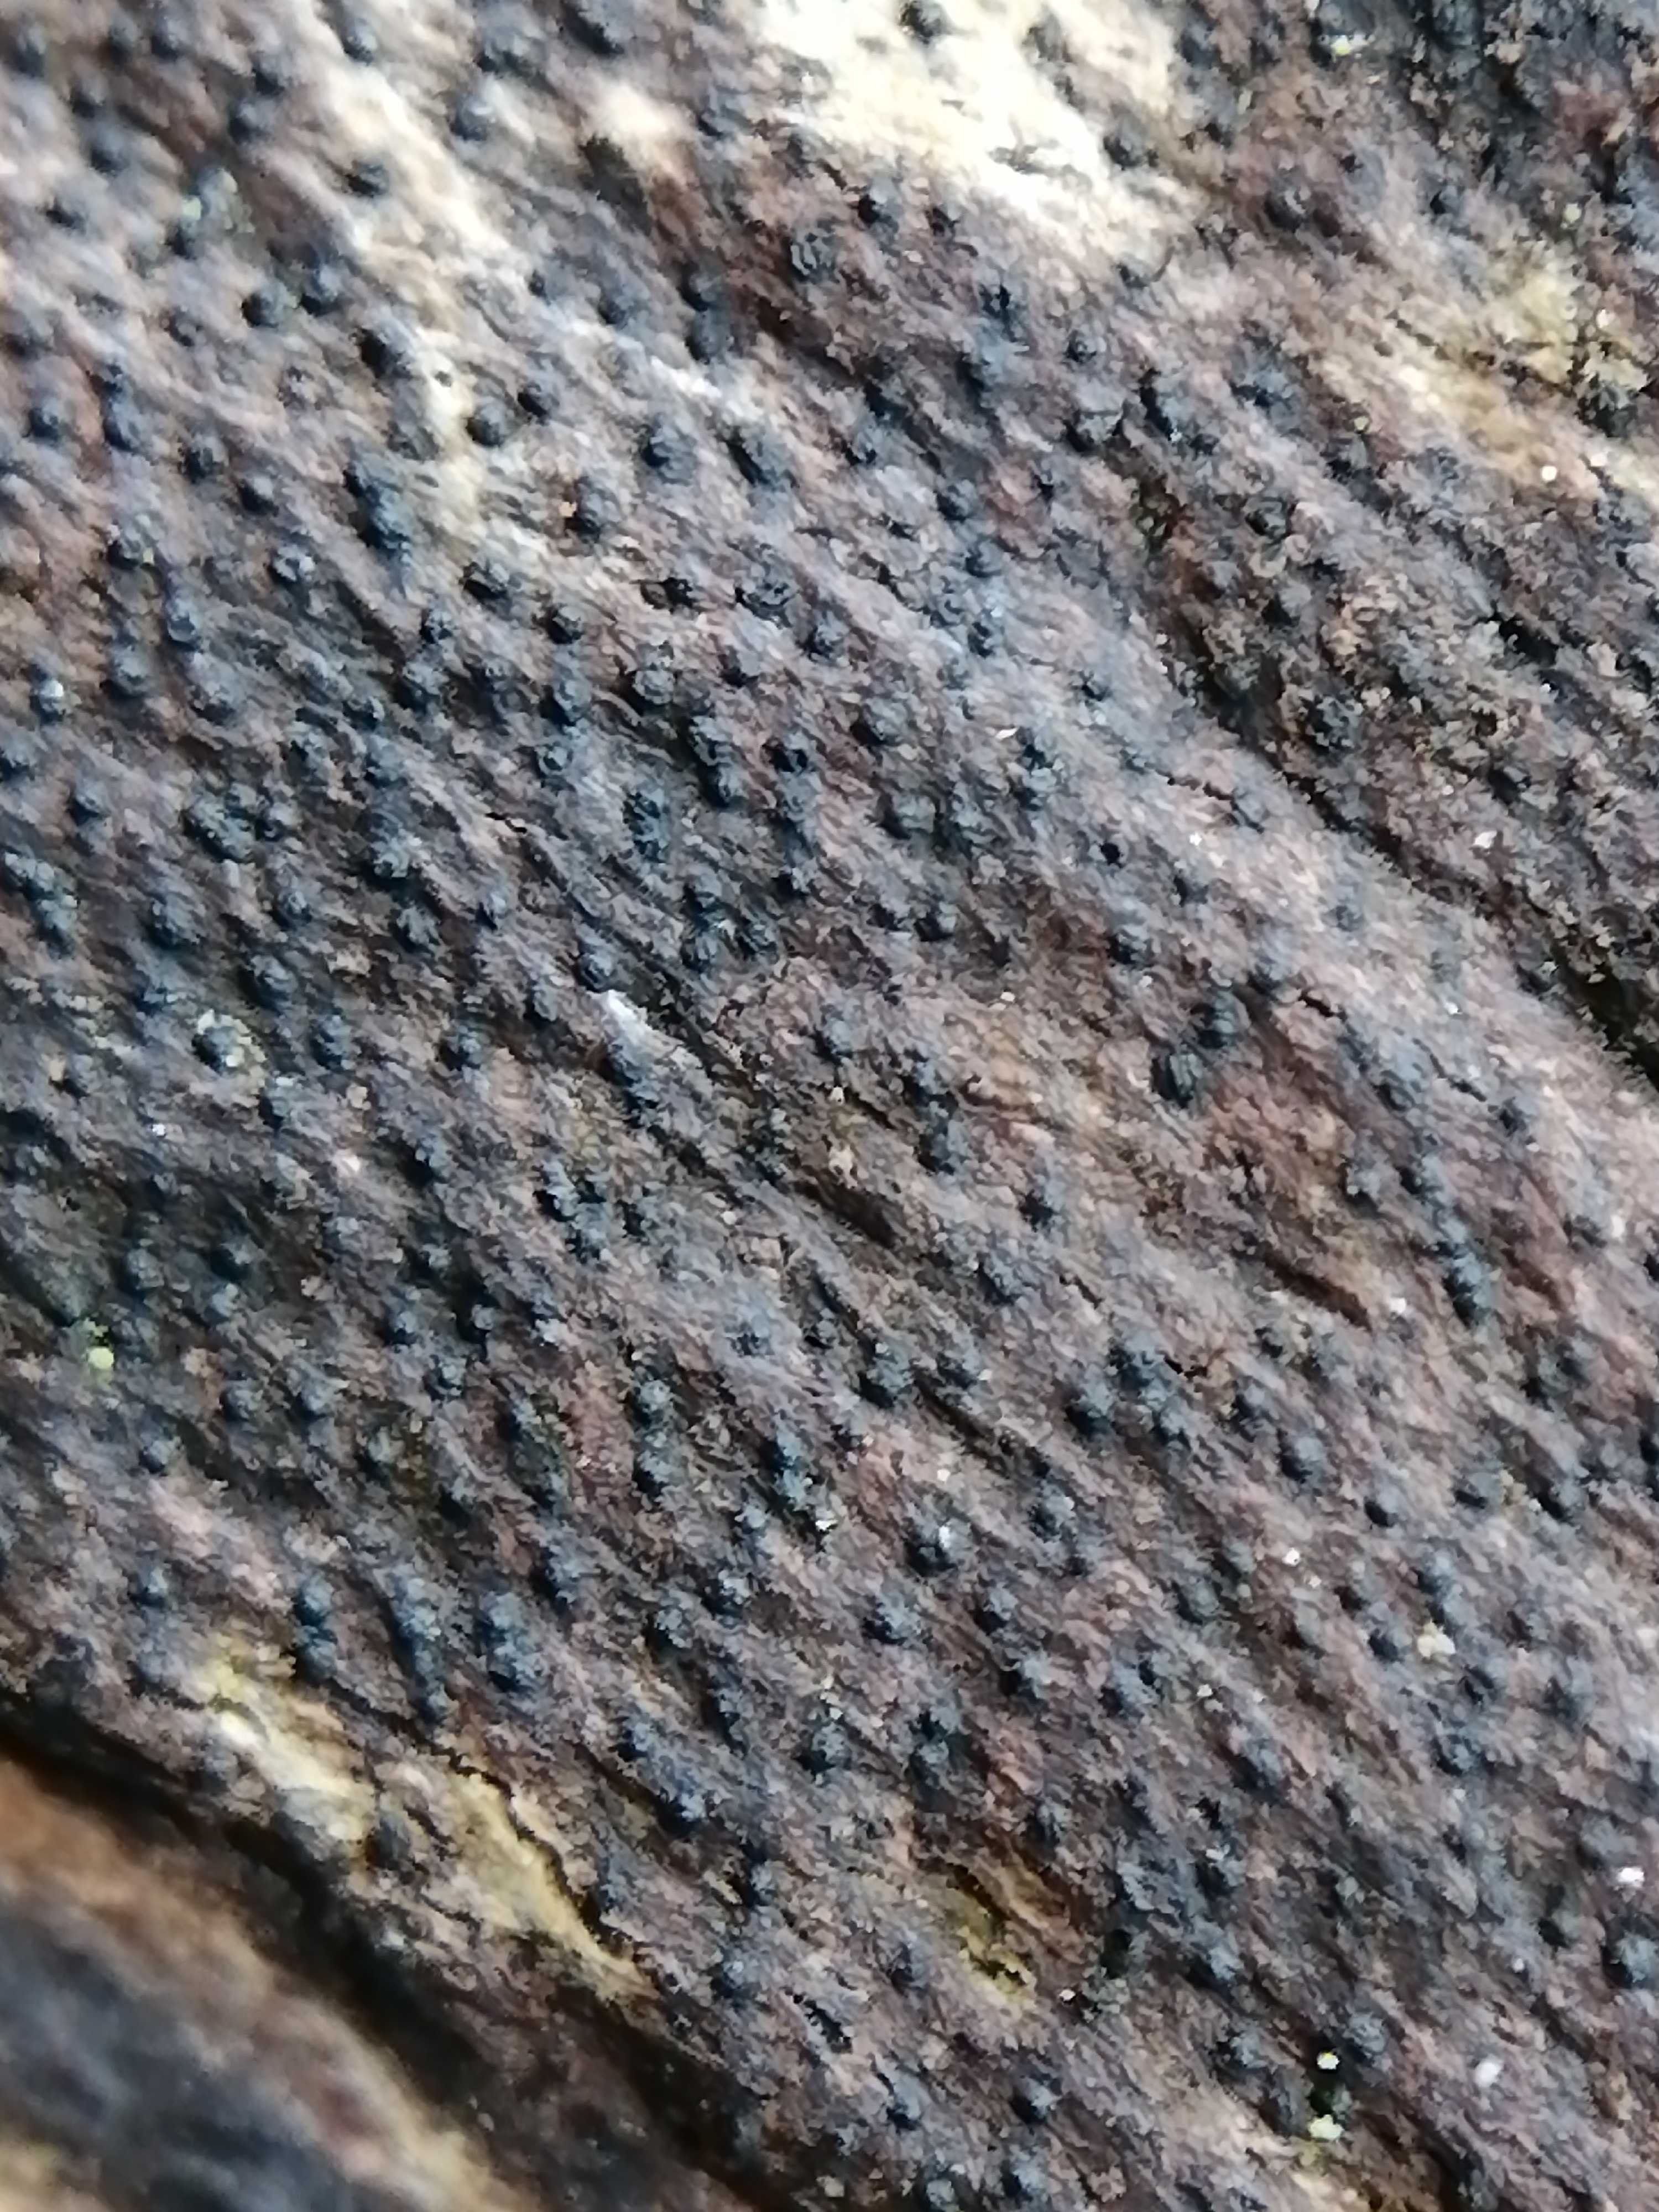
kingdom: Fungi
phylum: Ascomycota
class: Sordariomycetes
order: Xylariales
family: Diatrypaceae
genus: Eutypa
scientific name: Eutypa
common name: kulskorpe
